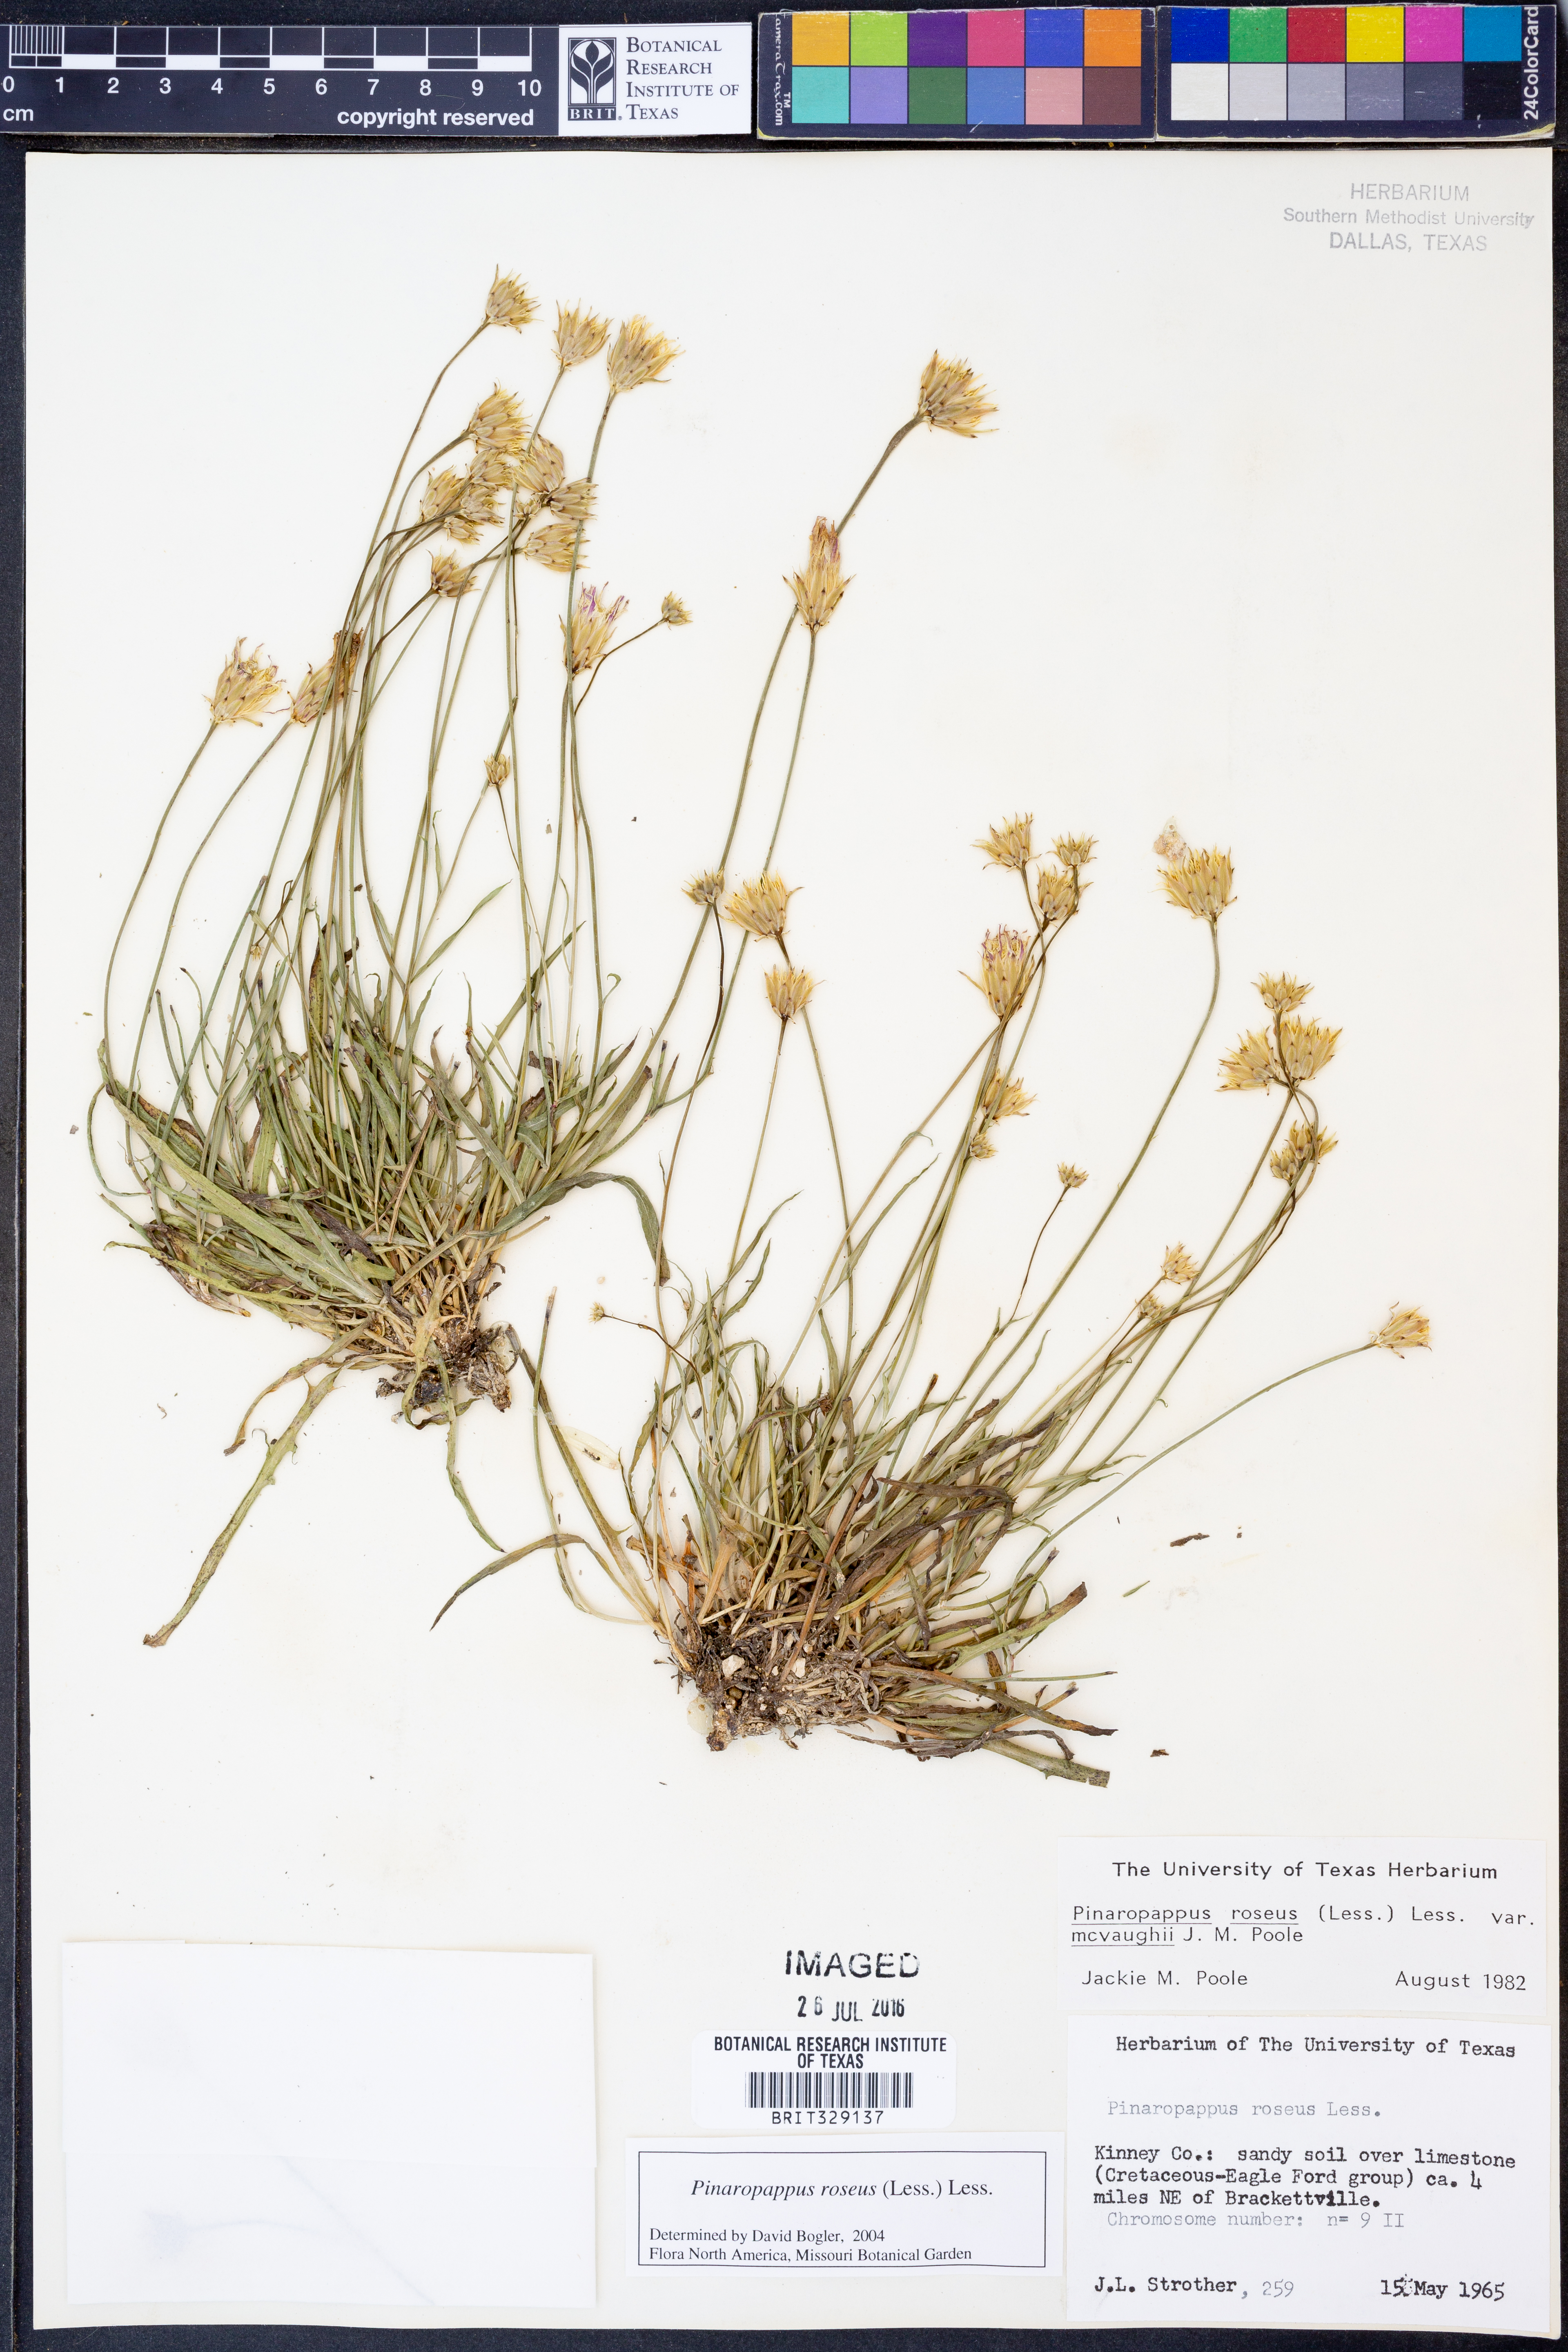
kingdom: Plantae
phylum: Tracheophyta
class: Magnoliopsida
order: Asterales
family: Asteraceae
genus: Pinaropappus
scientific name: Pinaropappus roseus
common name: Rock-lettuce
